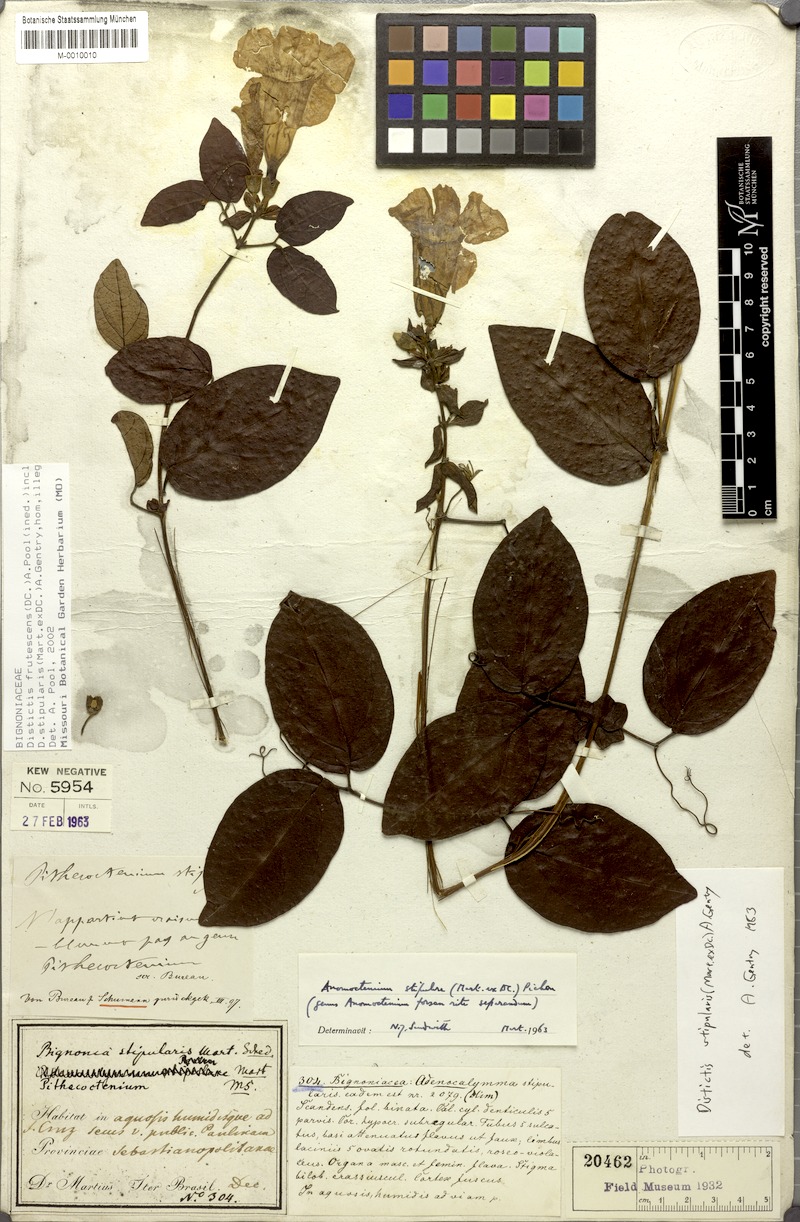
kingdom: Plantae
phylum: Tracheophyta
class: Magnoliopsida
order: Lamiales
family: Bignoniaceae
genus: Amphilophium
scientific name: Amphilophium frutescens
